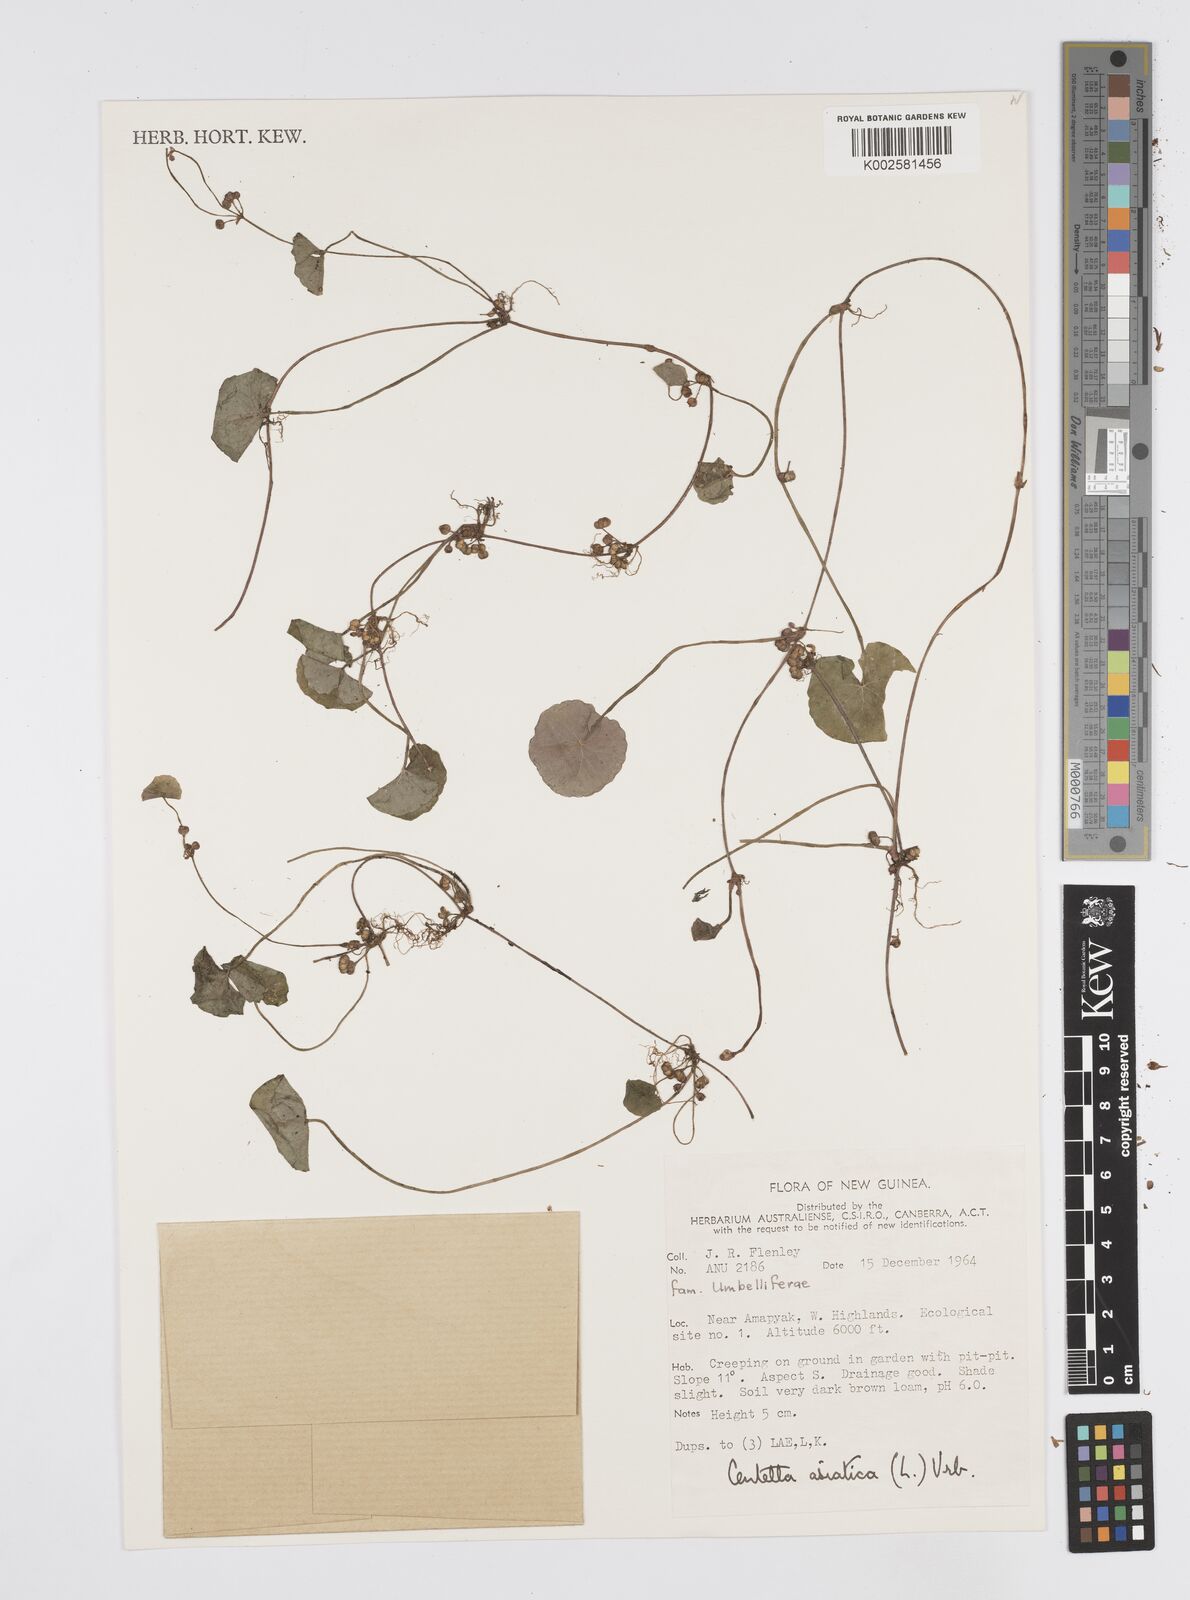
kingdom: Plantae
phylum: Tracheophyta
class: Magnoliopsida
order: Apiales
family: Apiaceae
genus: Centella
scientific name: Centella asiatica
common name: Spadeleaf
